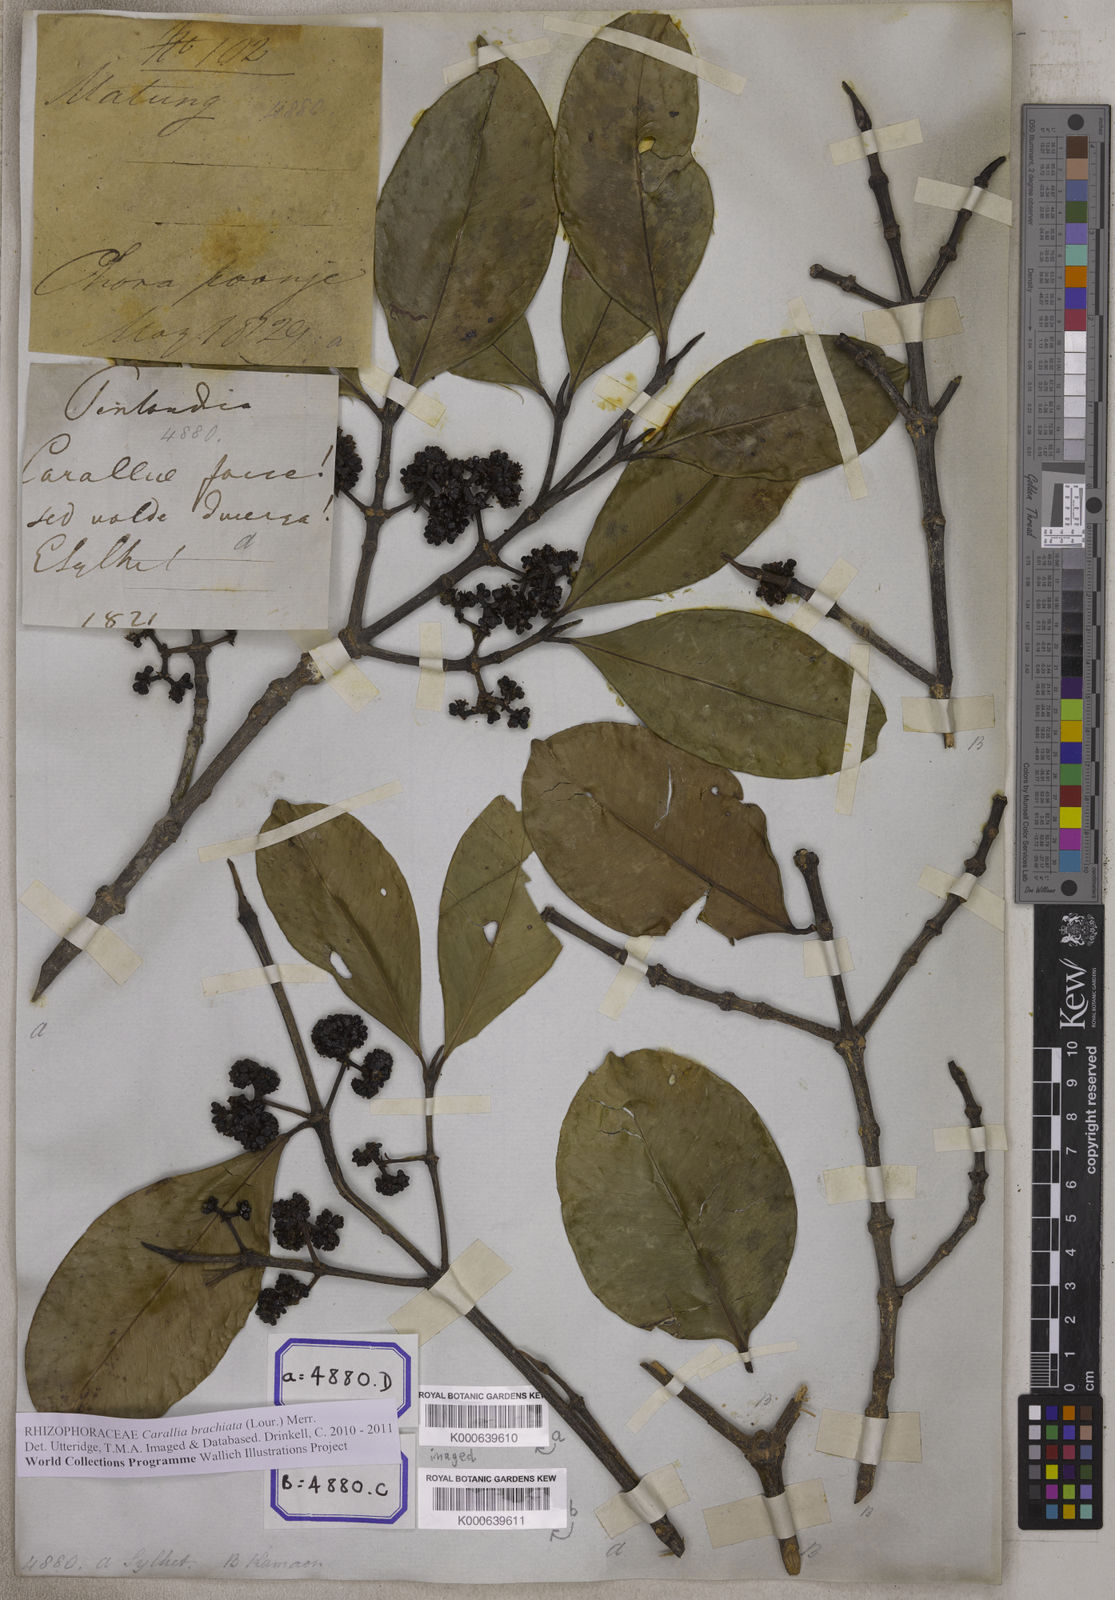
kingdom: Plantae
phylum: Tracheophyta
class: Magnoliopsida
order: Malpighiales
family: Rhizophoraceae
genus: Carallia
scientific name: Carallia brachiata
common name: Carallawood
